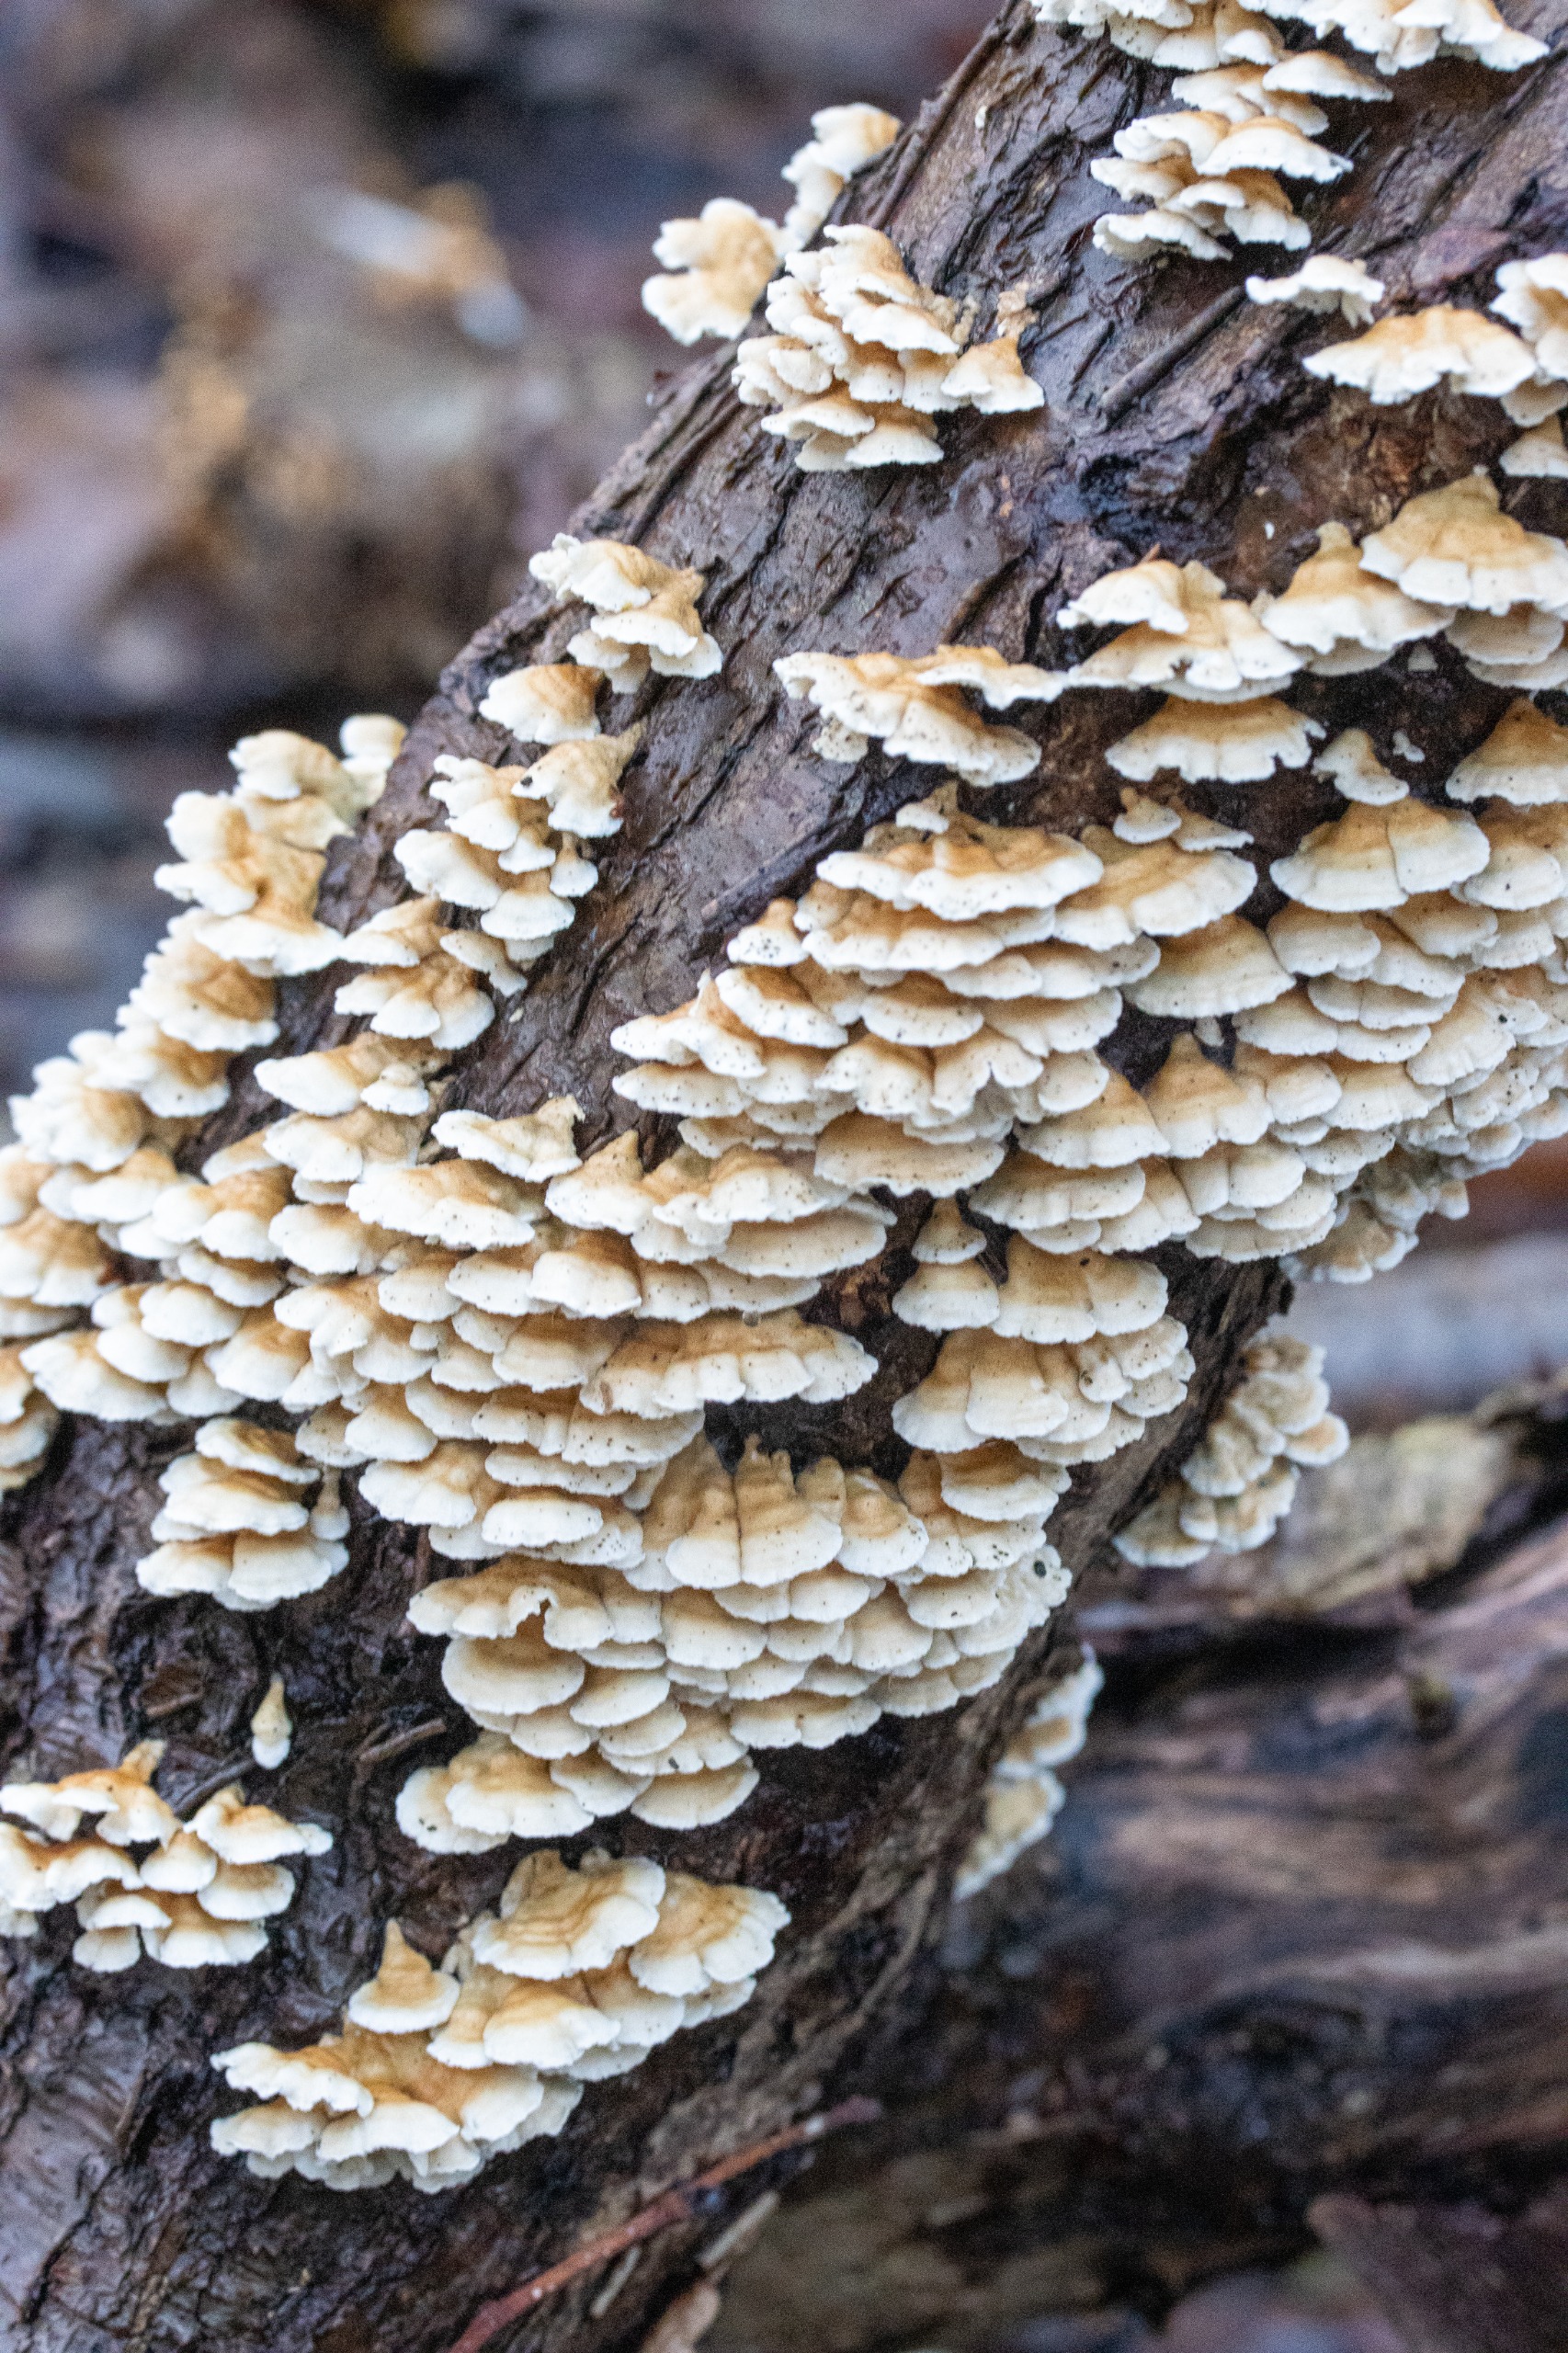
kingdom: Fungi
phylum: Basidiomycota
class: Agaricomycetes
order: Amylocorticiales
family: Amylocorticiaceae
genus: Plicaturopsis
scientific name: Plicaturopsis crispa
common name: Krusblad
